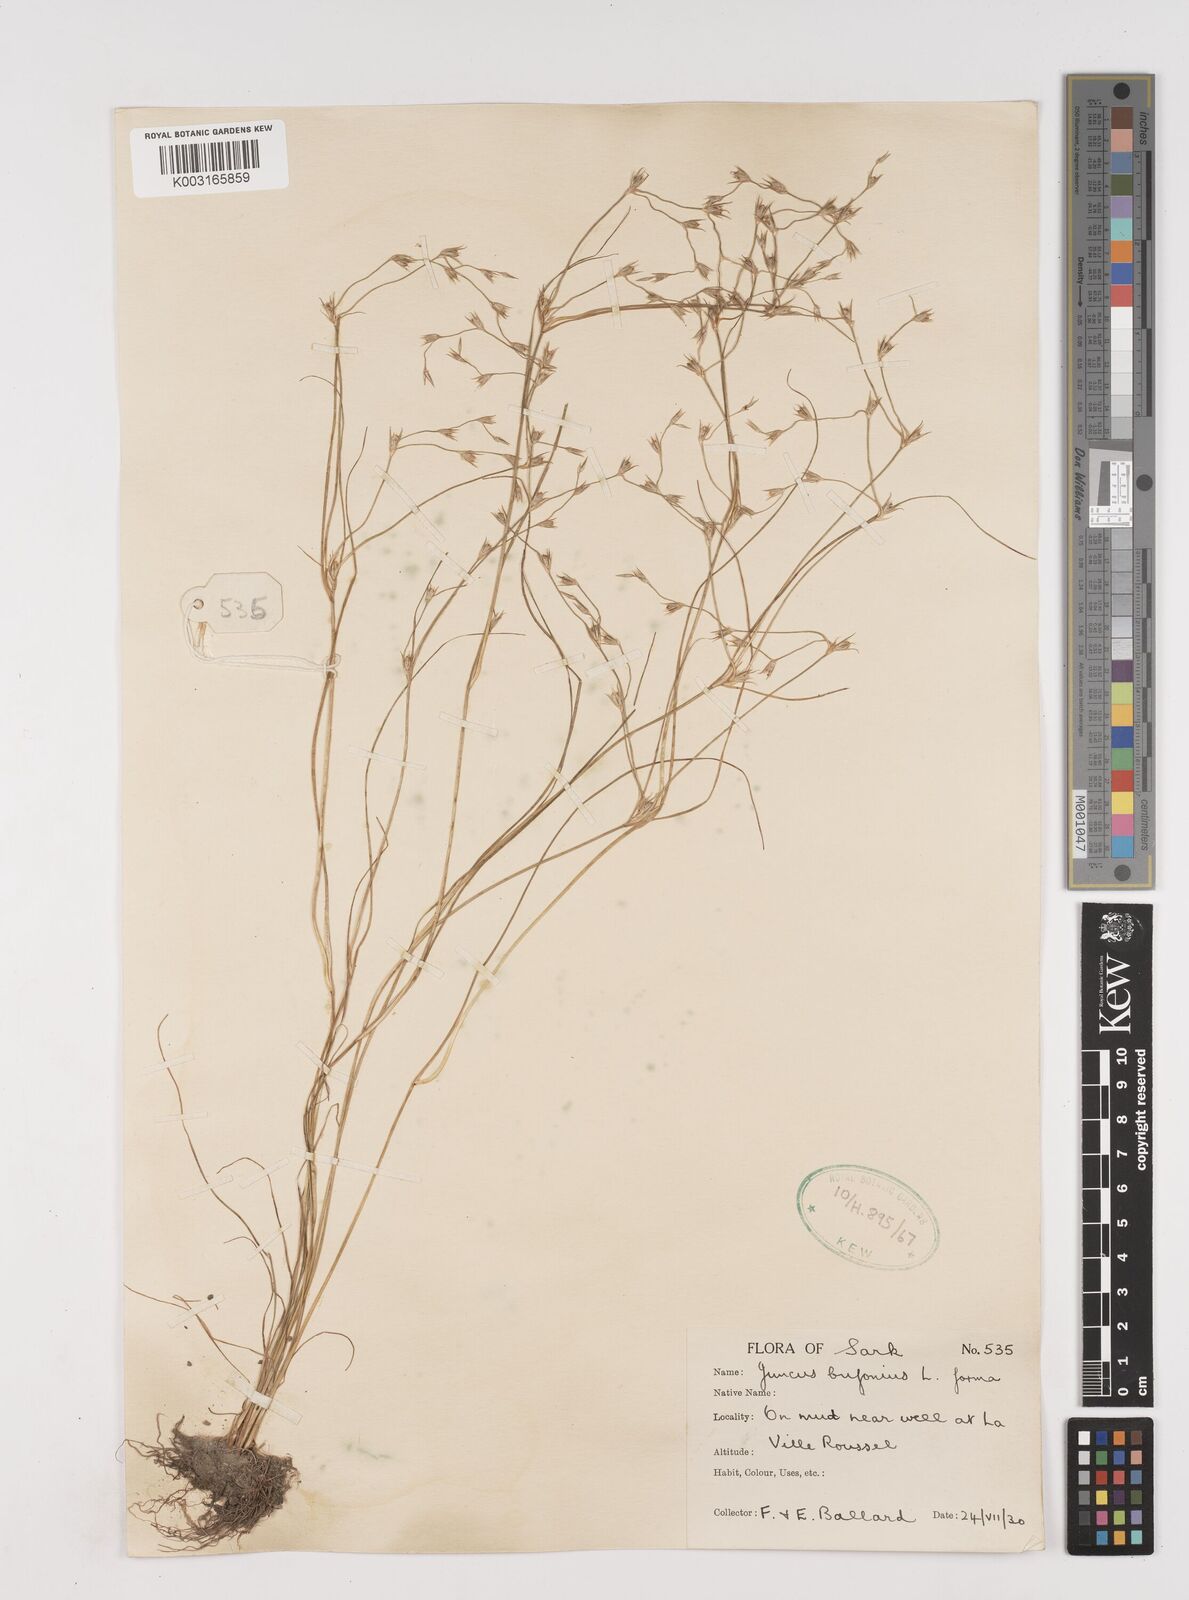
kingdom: Plantae
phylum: Tracheophyta
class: Liliopsida
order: Poales
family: Juncaceae
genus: Juncus
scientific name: Juncus bufonius
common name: Toad rush
